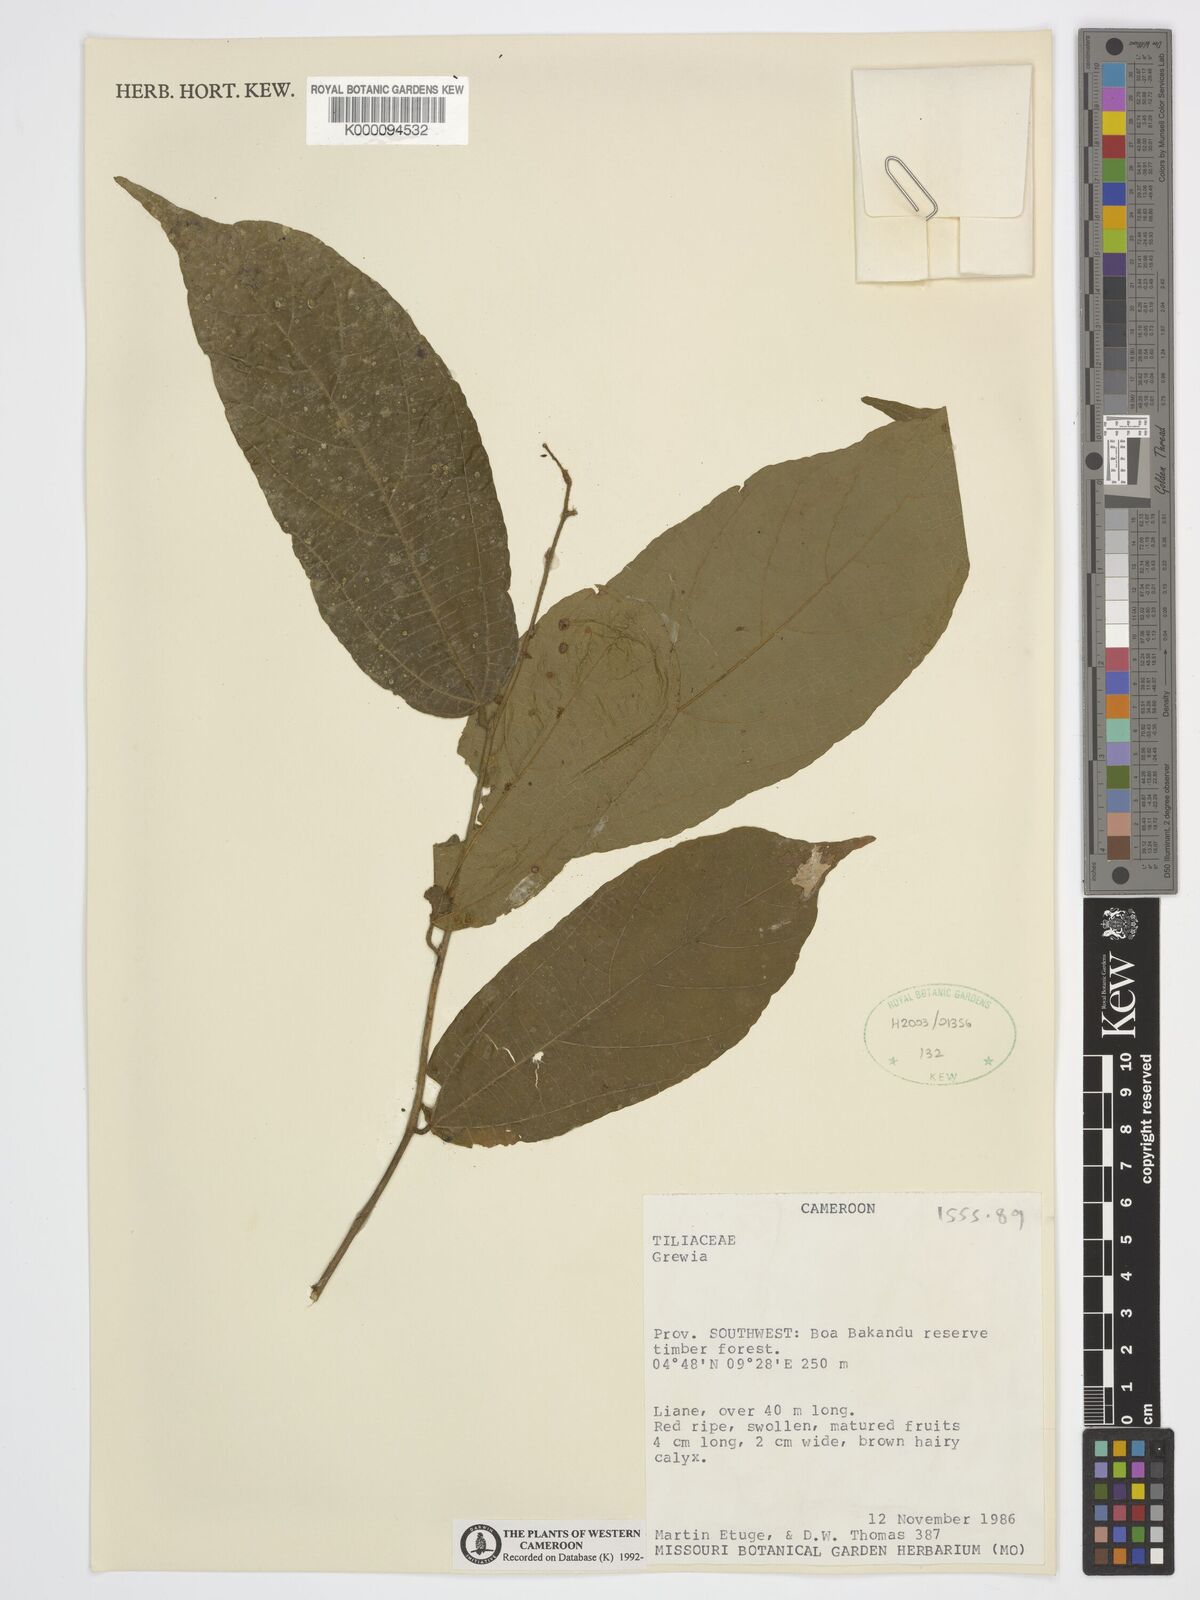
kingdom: Plantae
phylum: Tracheophyta
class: Magnoliopsida
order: Malvales
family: Malvaceae
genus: Grewia
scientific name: Grewia
